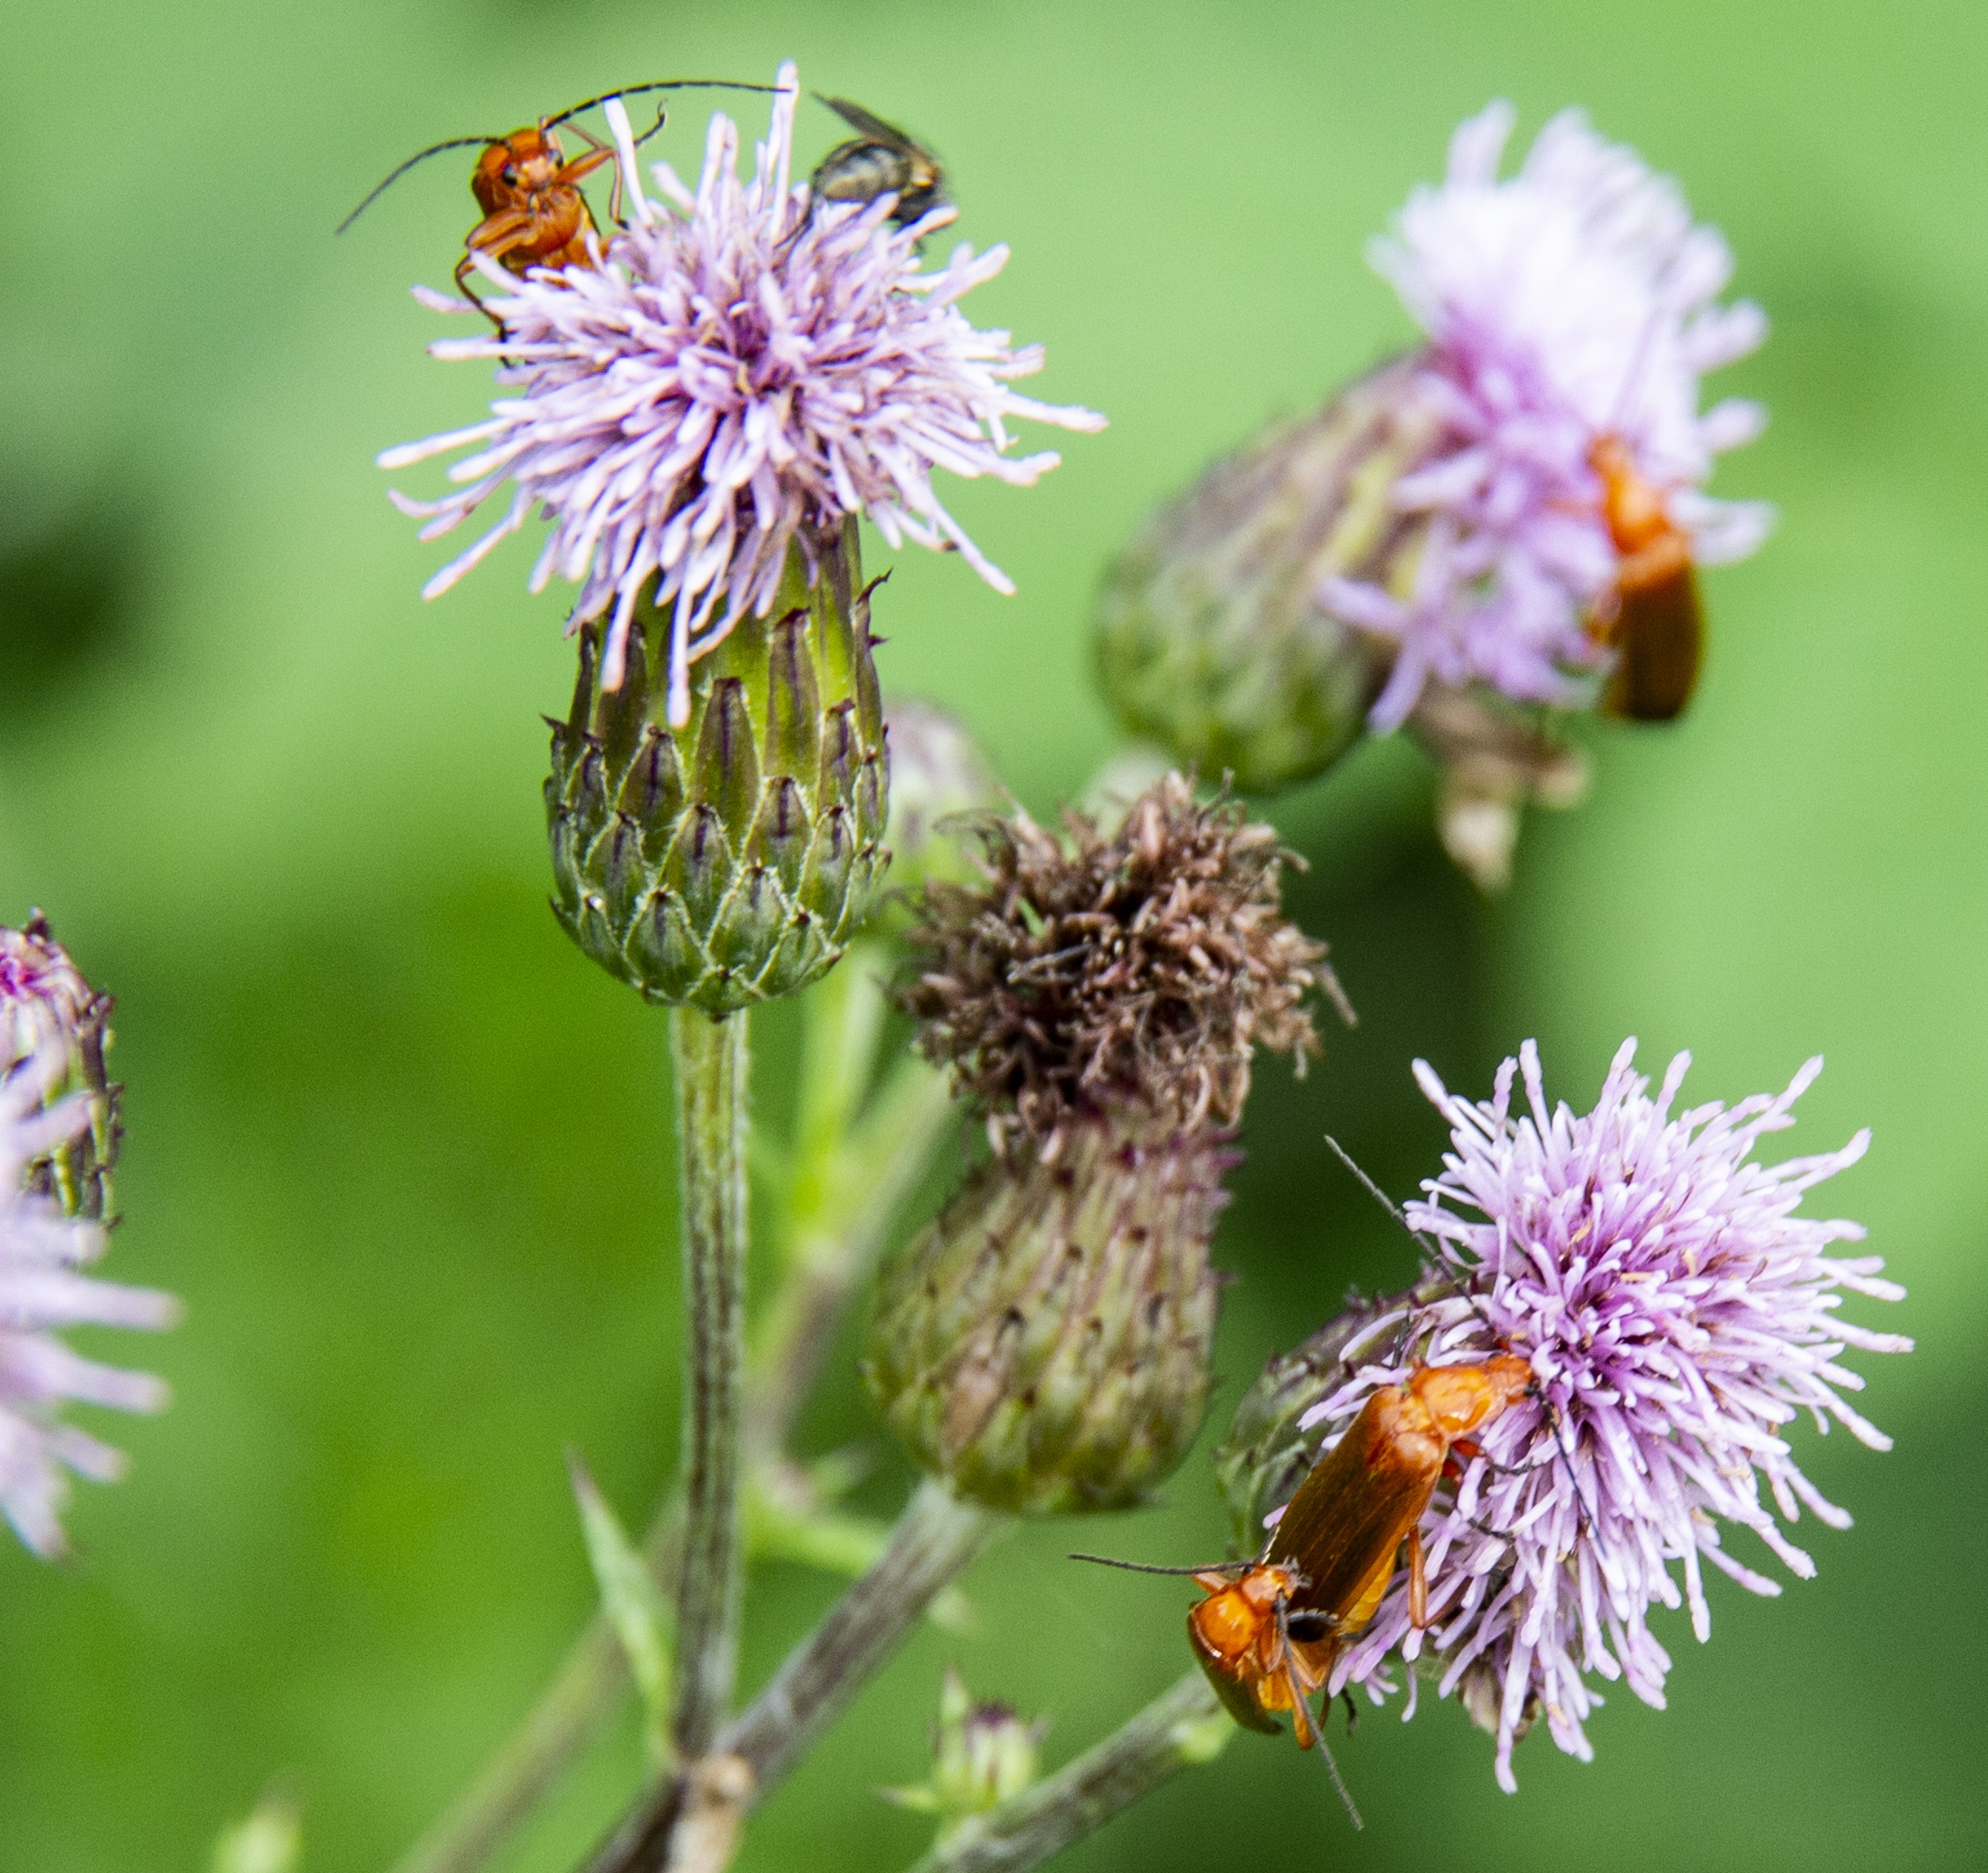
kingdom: Animalia
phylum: Arthropoda
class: Insecta
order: Coleoptera
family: Cantharidae
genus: Rhagonycha
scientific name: Rhagonycha fulva
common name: Præstebille
